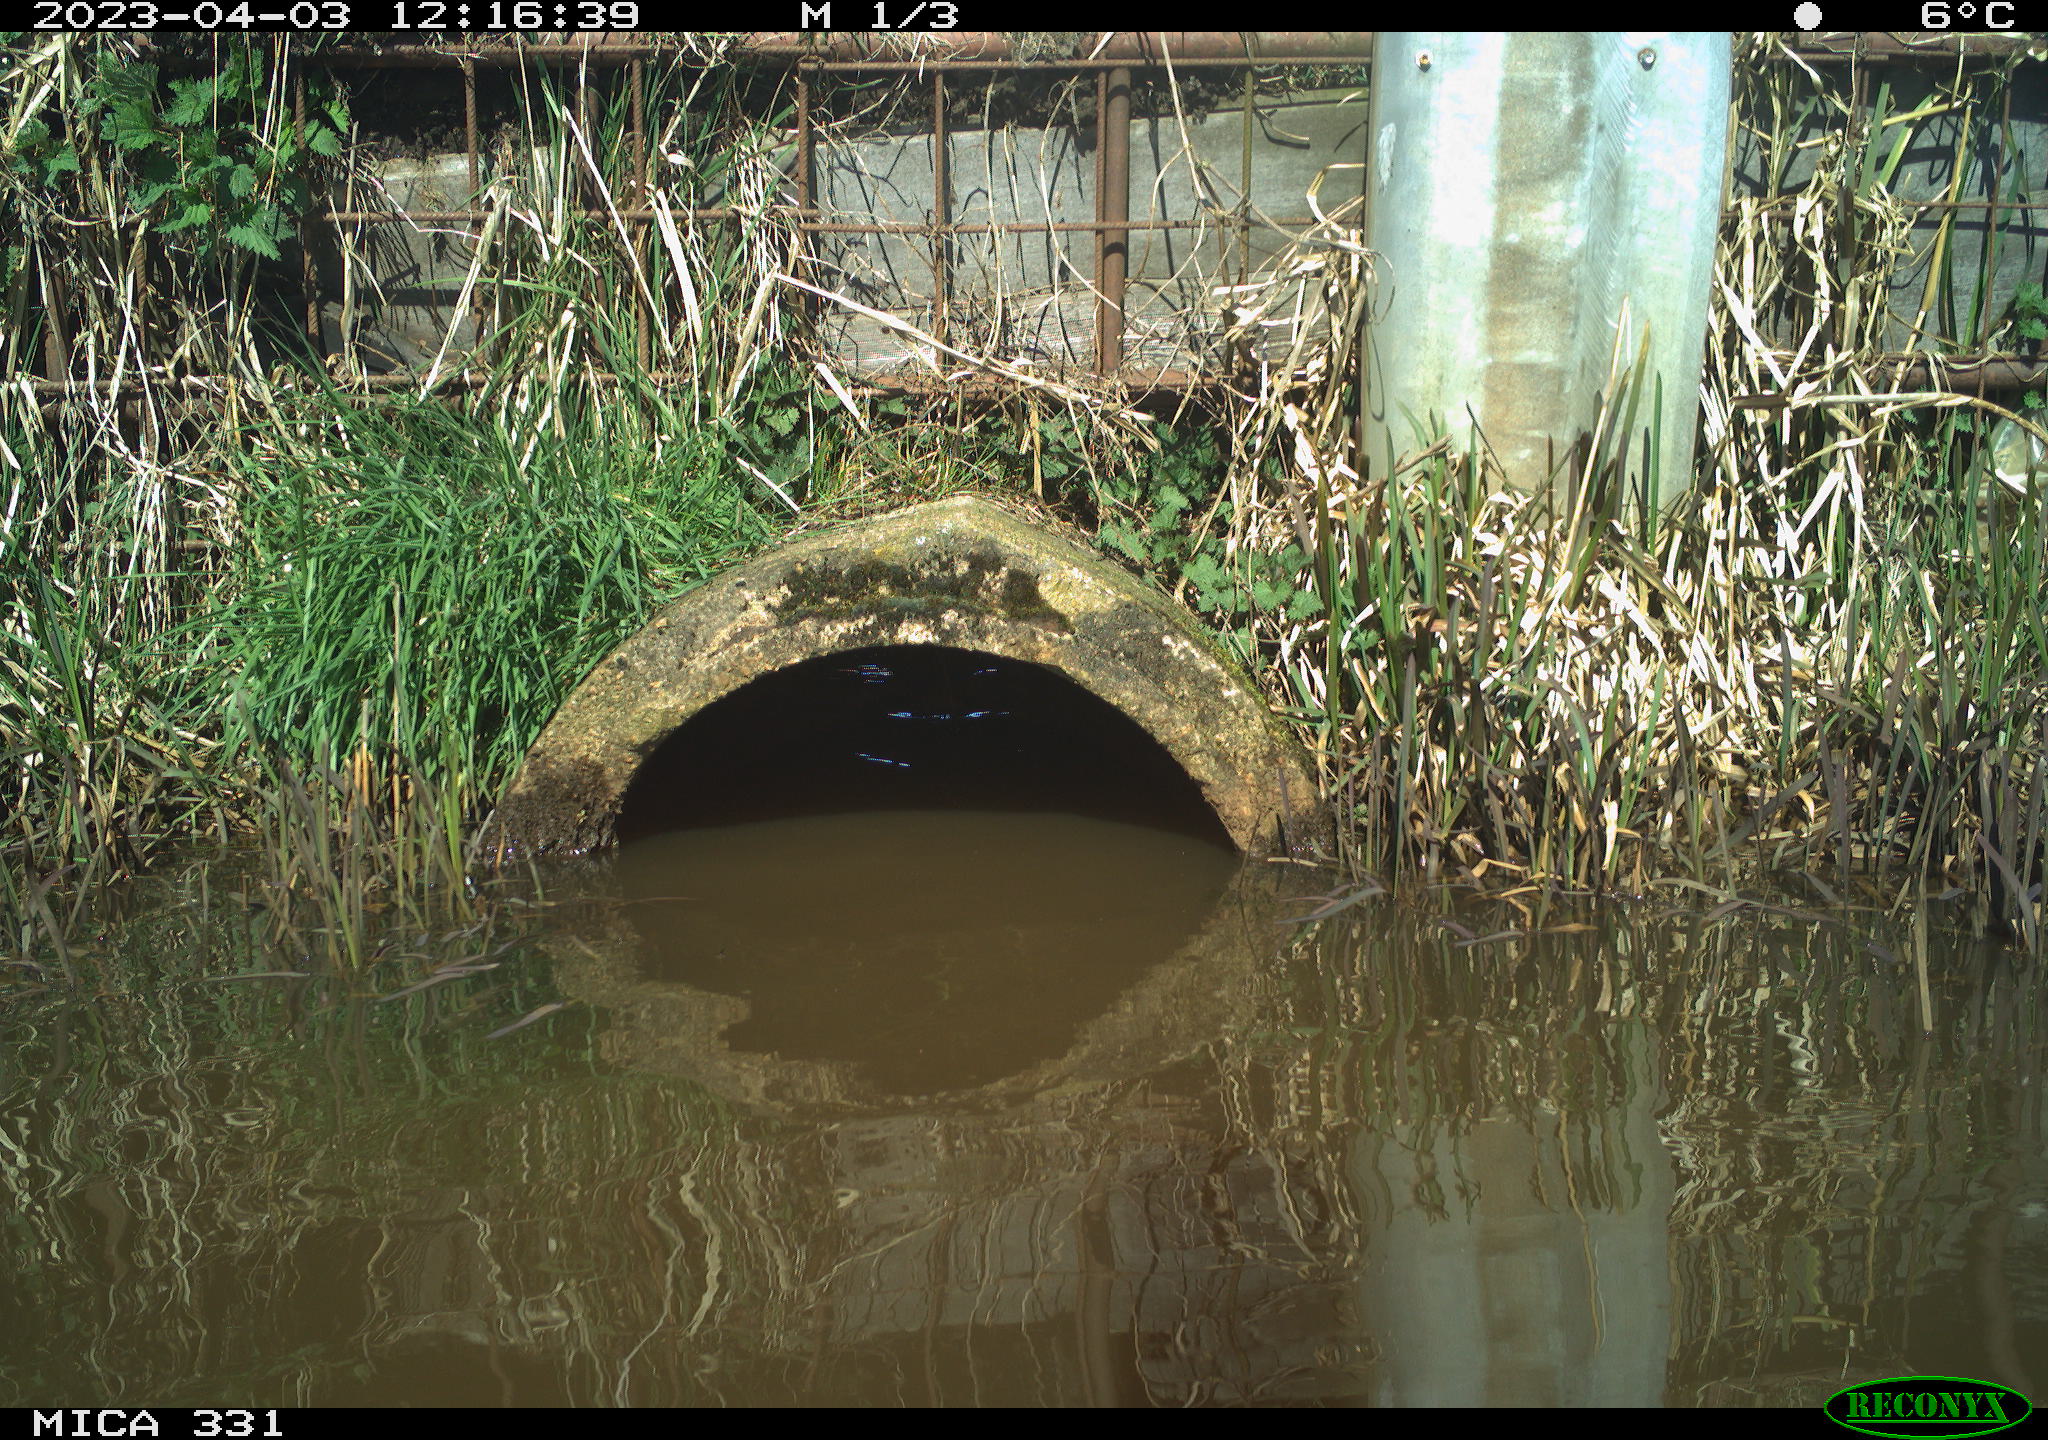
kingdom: Animalia
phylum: Chordata
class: Aves
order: Gruiformes
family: Rallidae
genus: Fulica
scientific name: Fulica atra
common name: Eurasian coot
